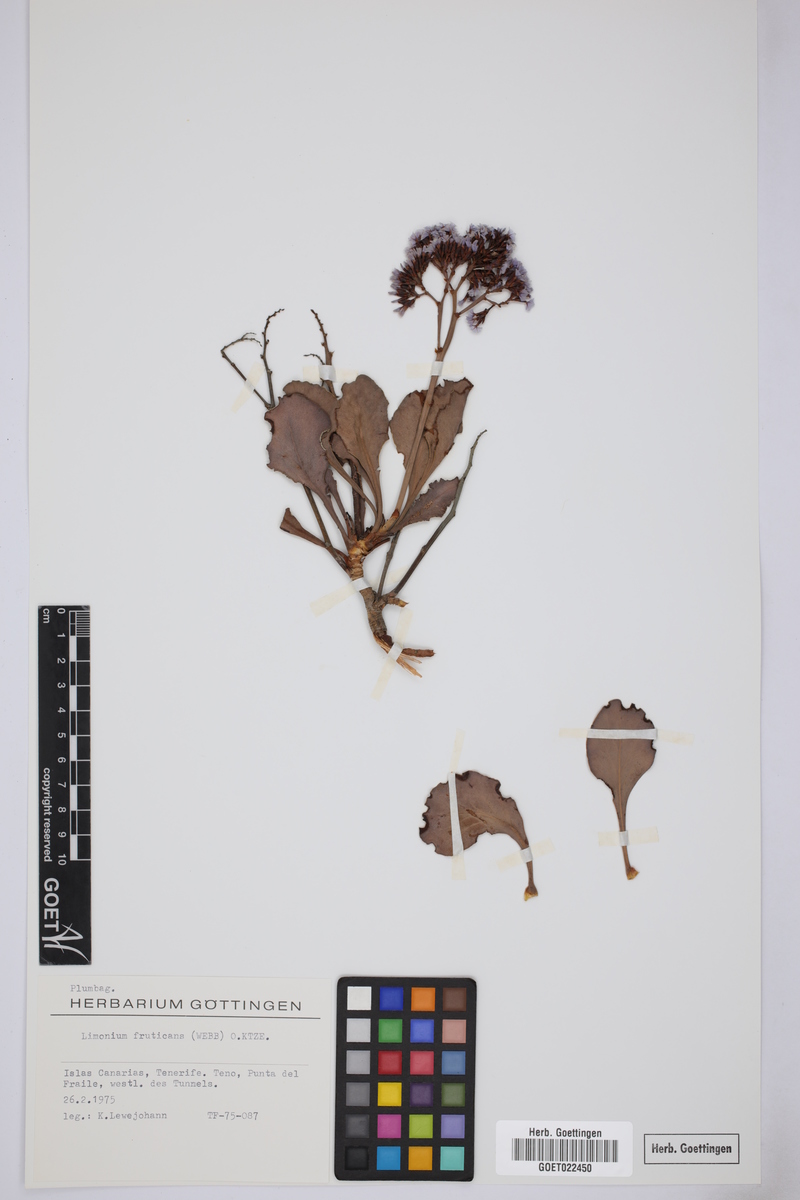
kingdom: Plantae
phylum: Tracheophyta
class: Magnoliopsida
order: Caryophyllales
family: Plumbaginaceae
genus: Limonium
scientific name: Limonium frutescens
